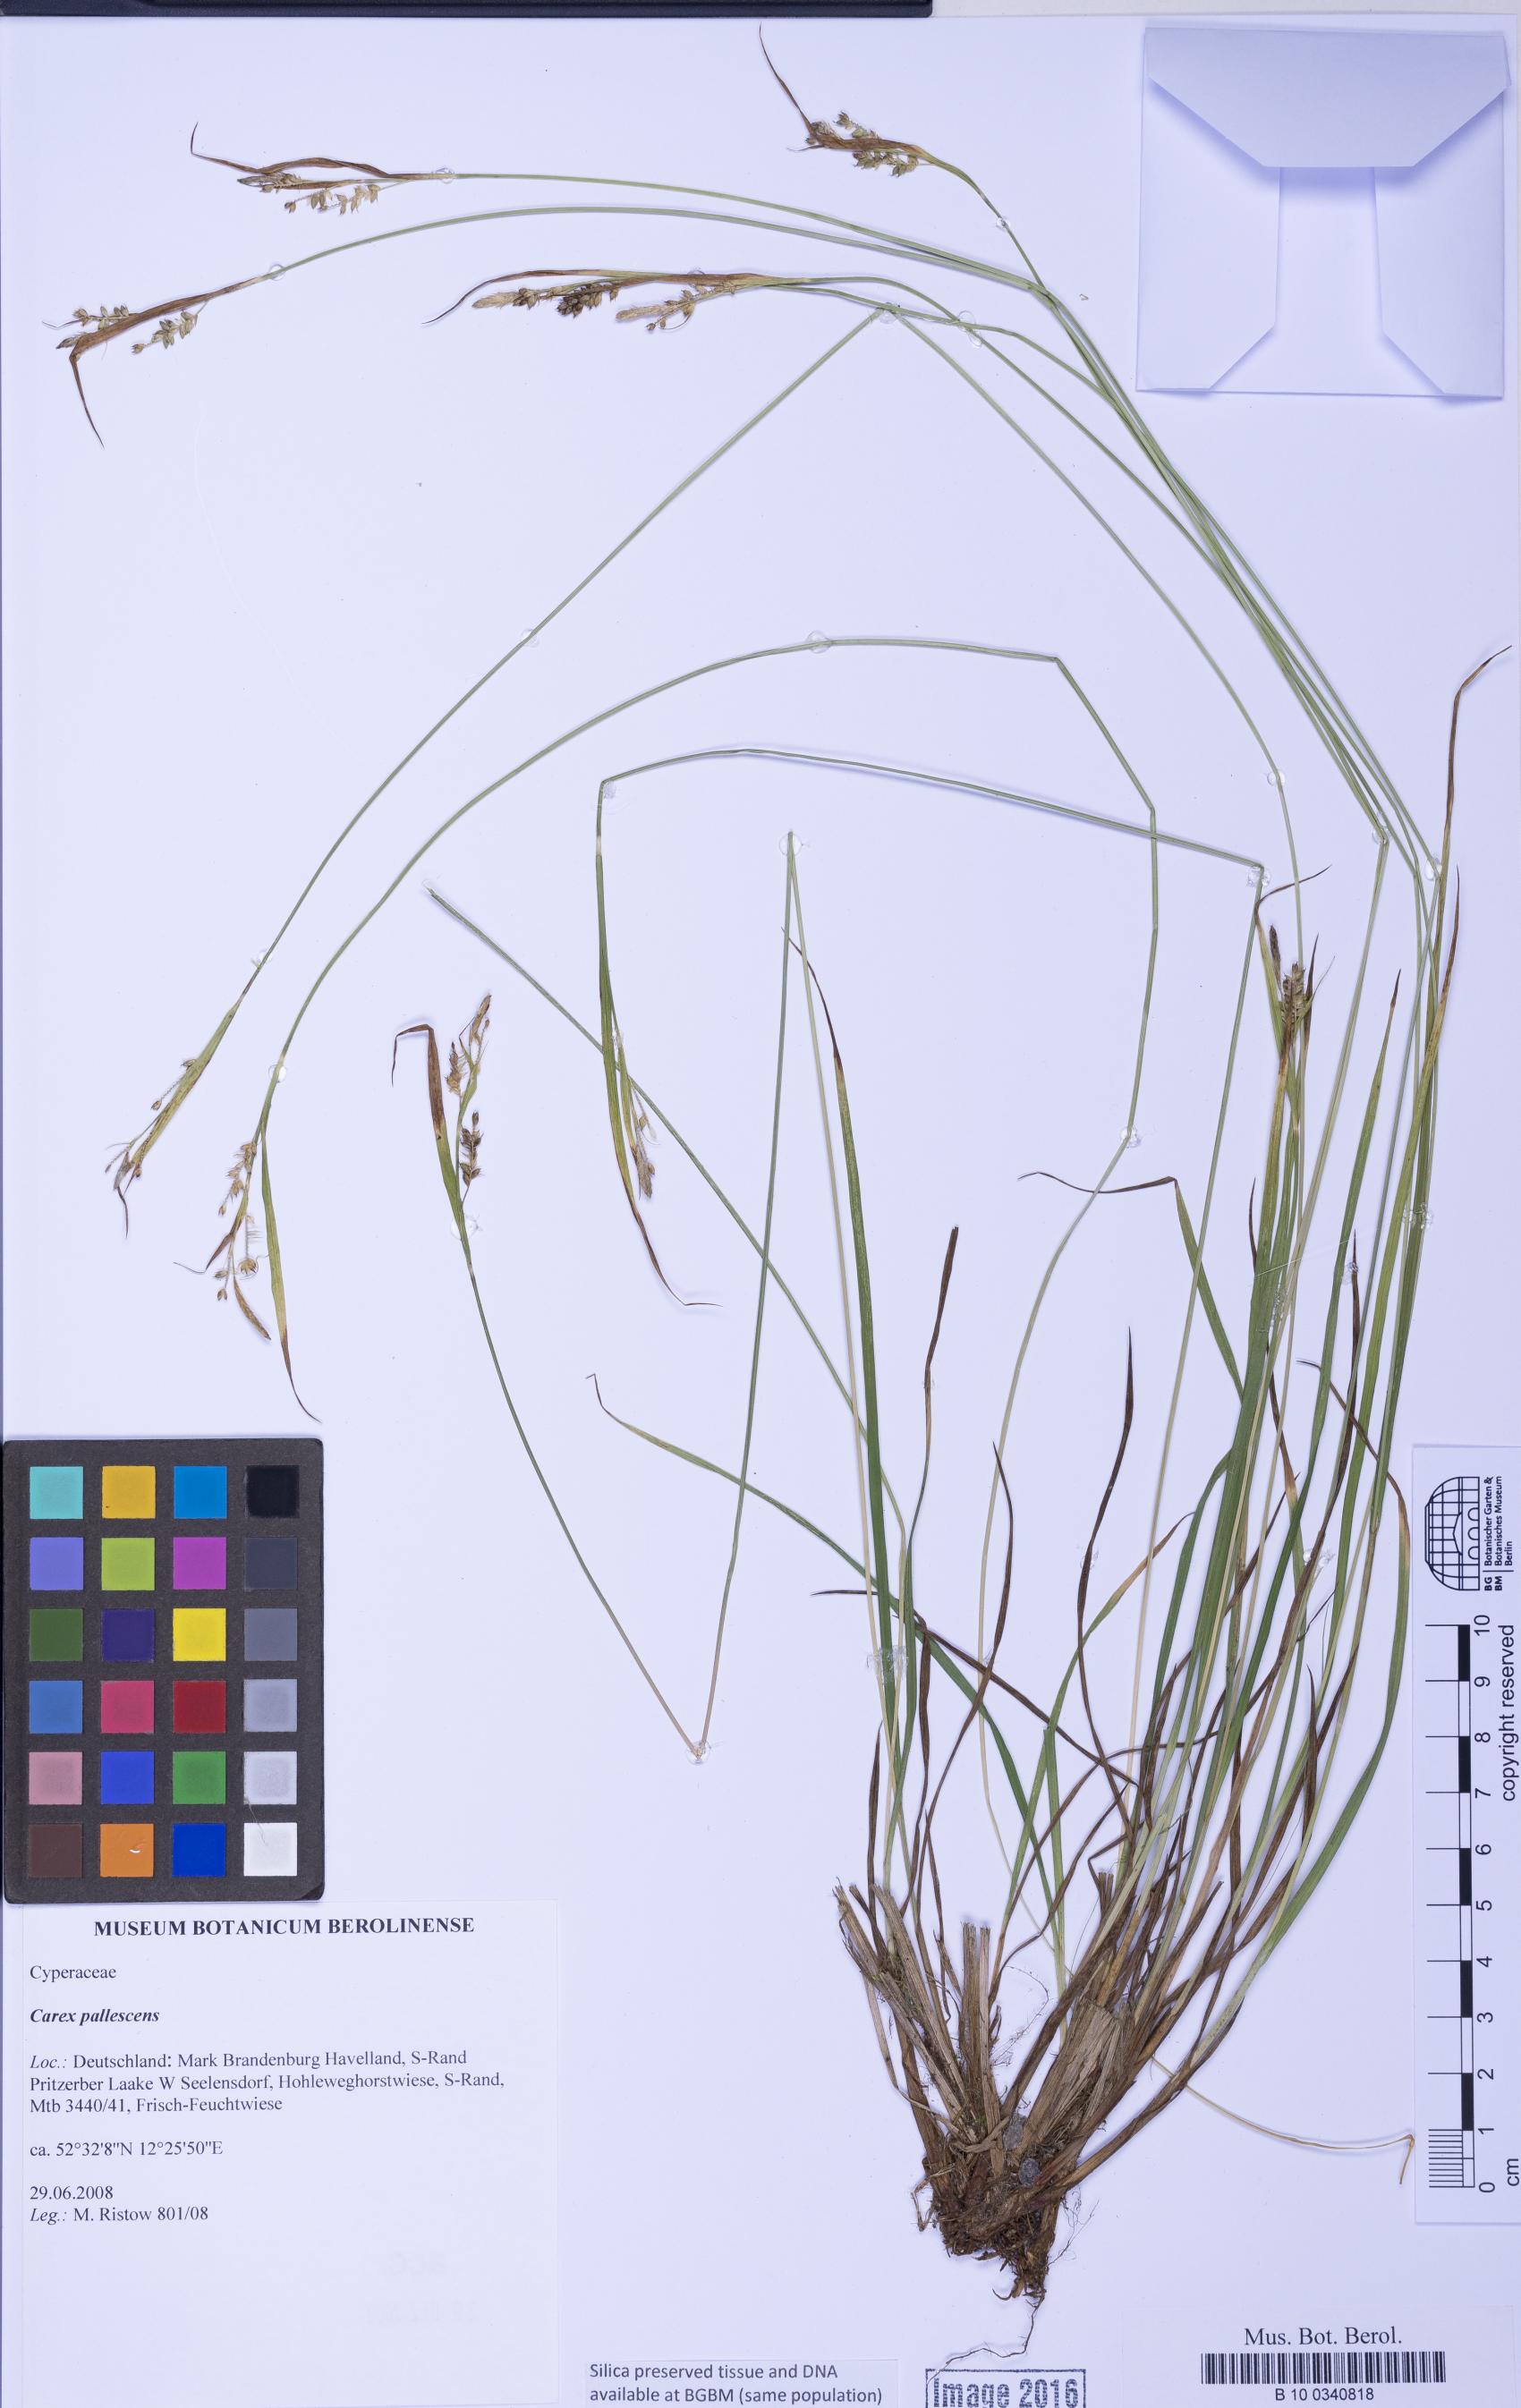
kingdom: Plantae
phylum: Tracheophyta
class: Liliopsida
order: Poales
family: Cyperaceae
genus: Carex
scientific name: Carex pallescens
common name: Pale sedge
